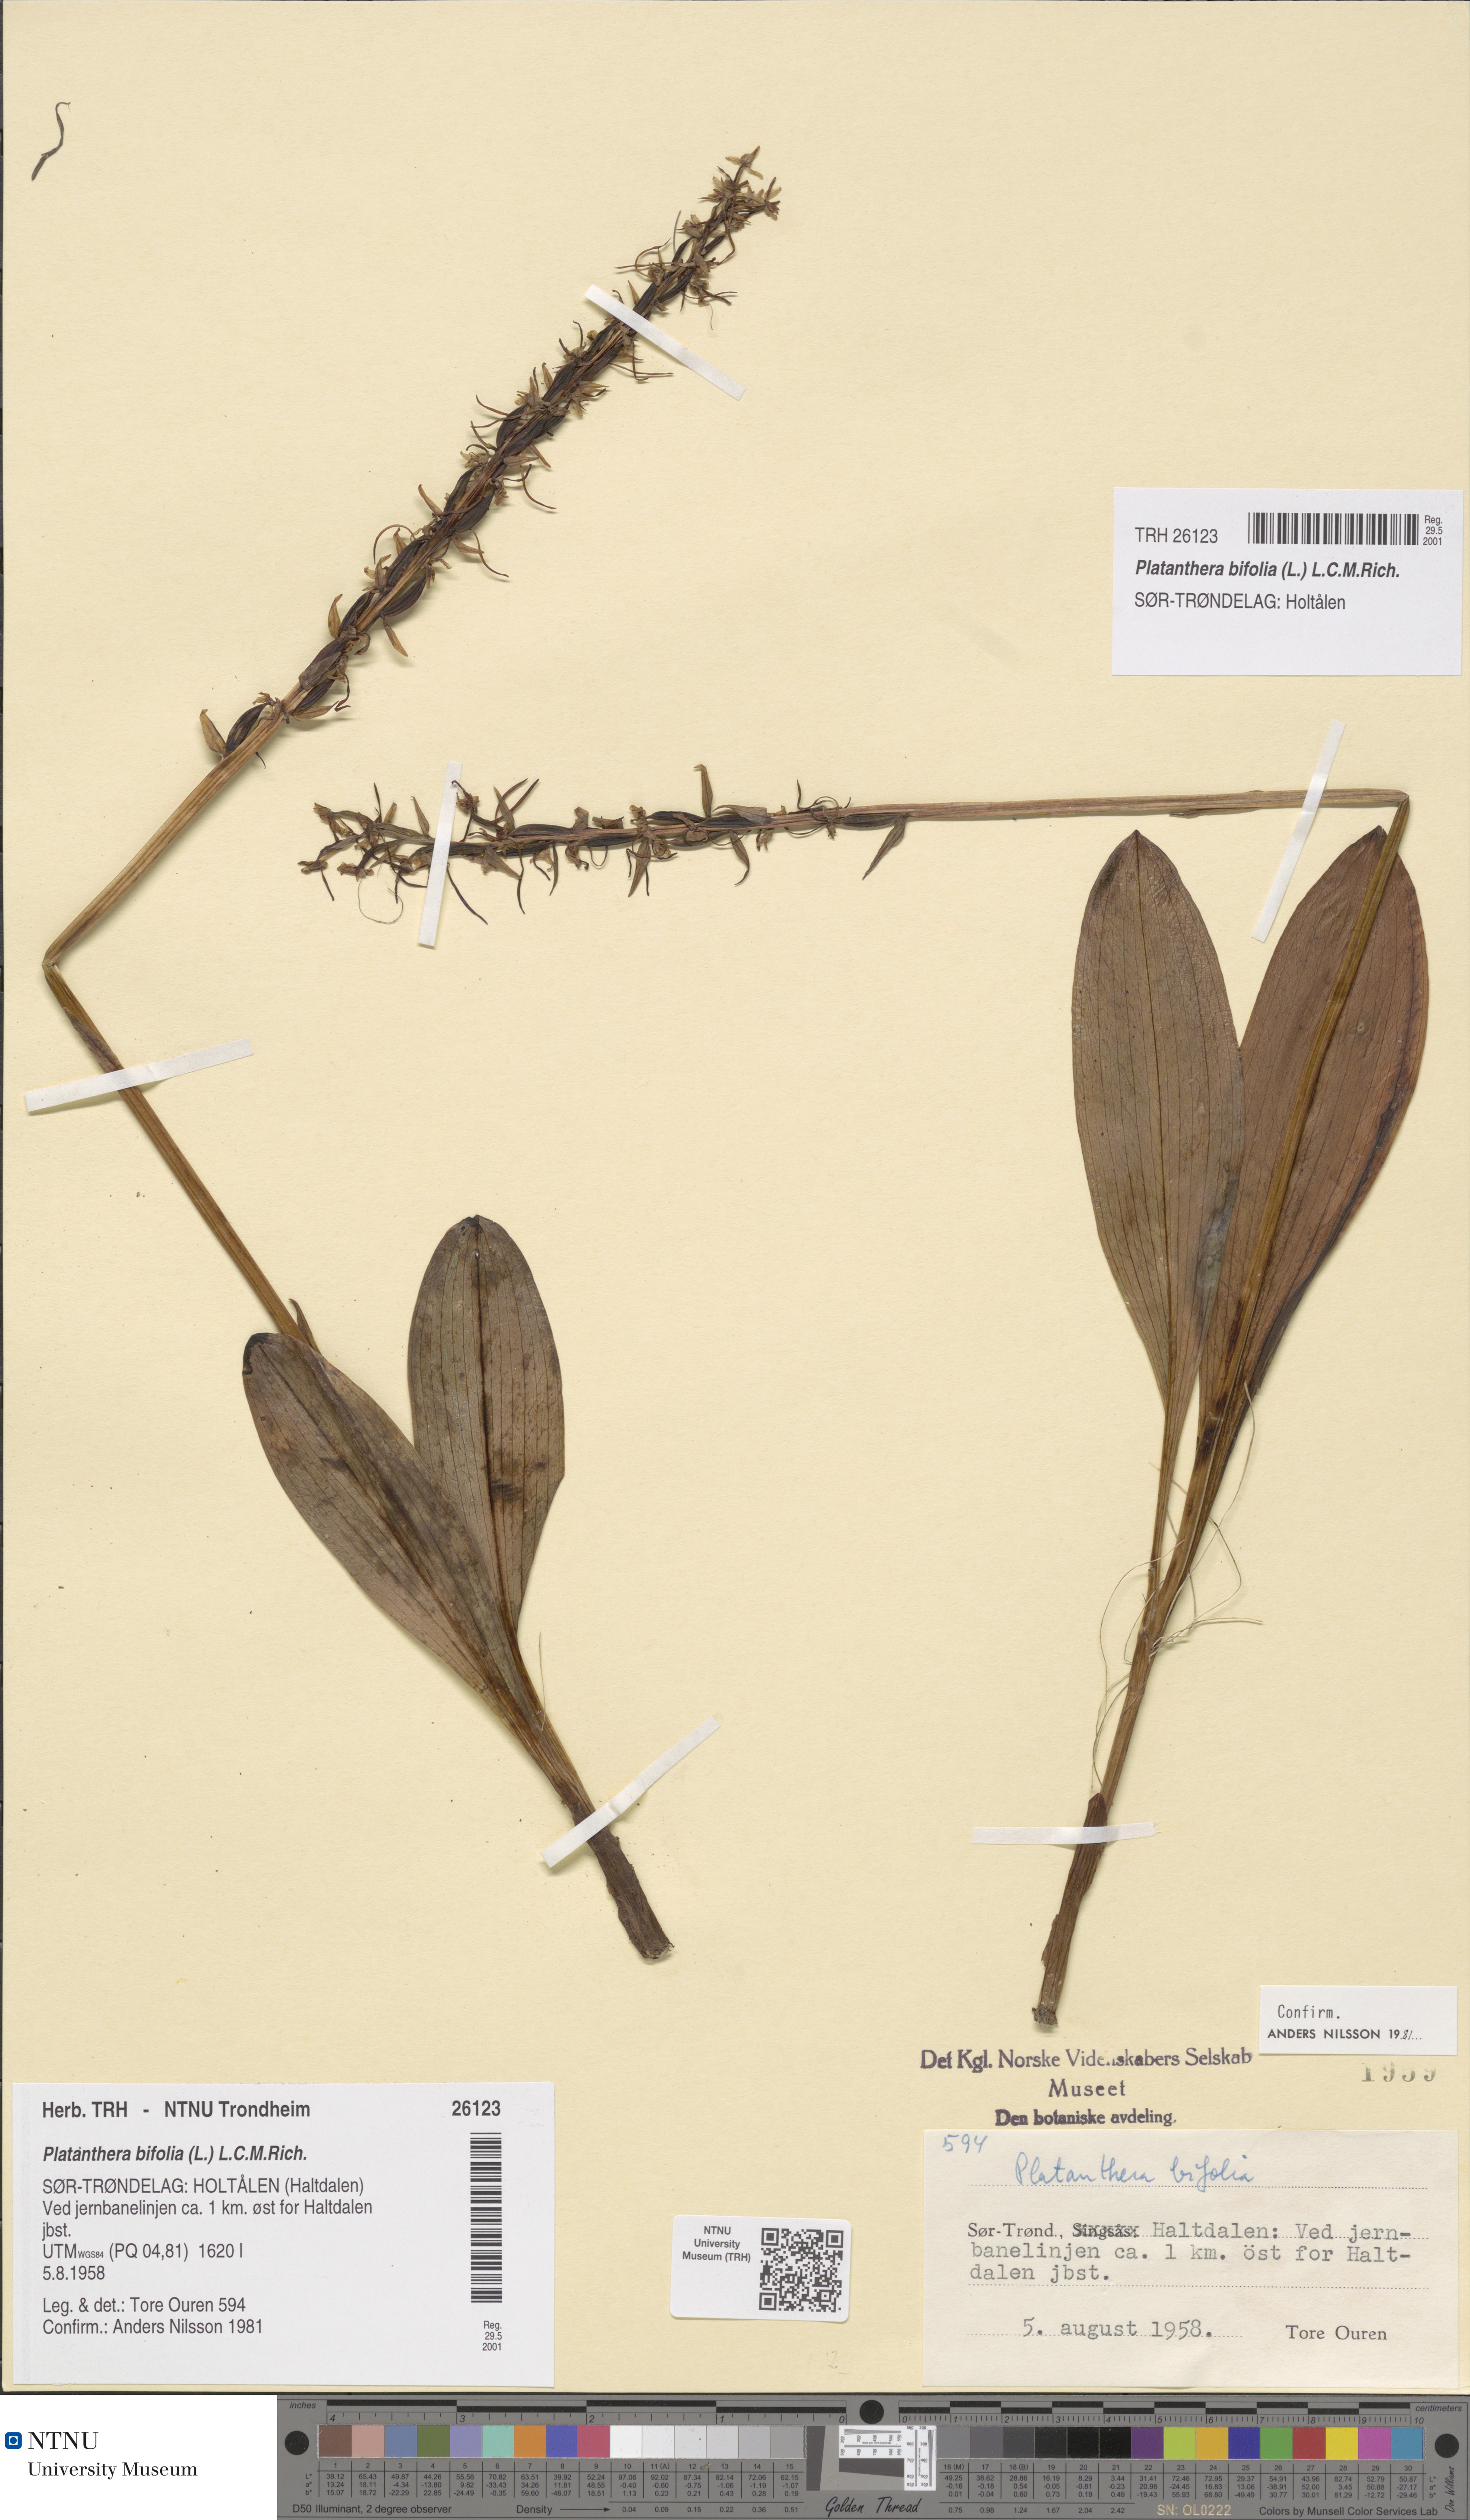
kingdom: Plantae
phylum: Tracheophyta
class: Liliopsida
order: Asparagales
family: Orchidaceae
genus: Platanthera
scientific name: Platanthera bifolia
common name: Lesser butterfly-orchid
